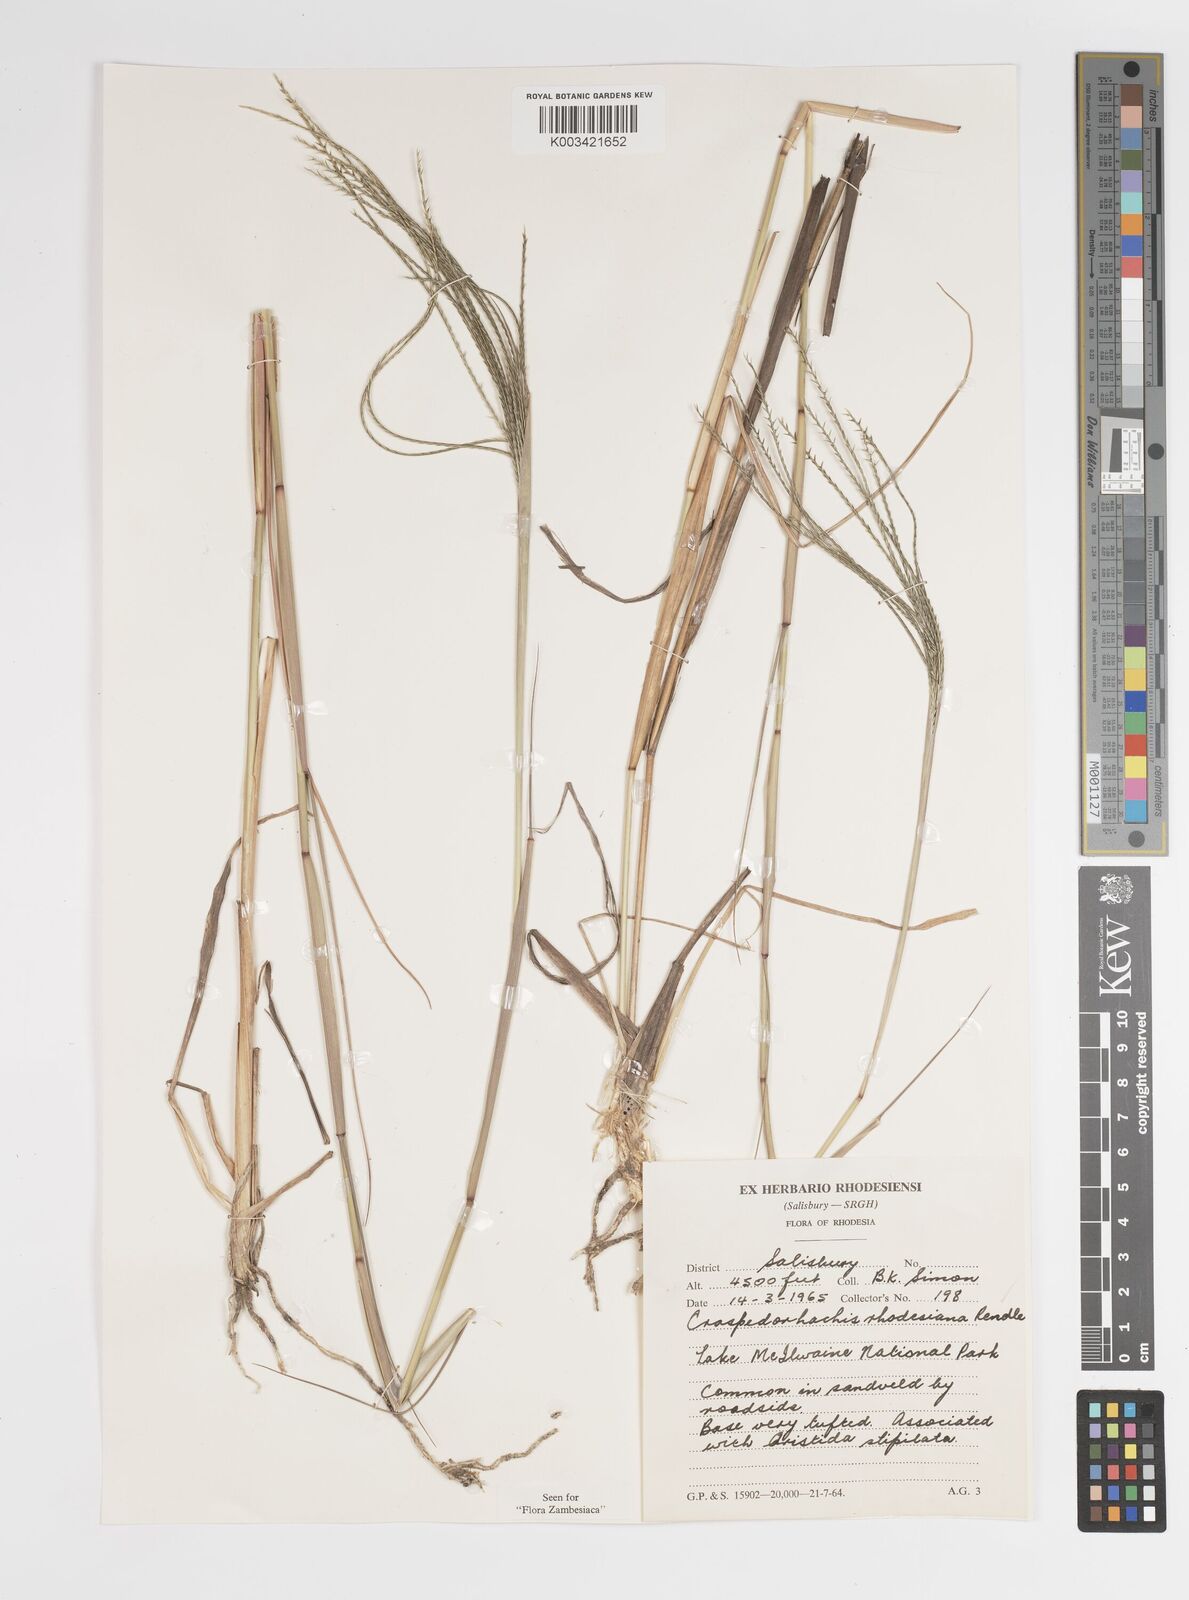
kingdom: Plantae
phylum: Tracheophyta
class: Liliopsida
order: Poales
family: Poaceae
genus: Craspedorhachis
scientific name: Craspedorhachis rhodesiana
